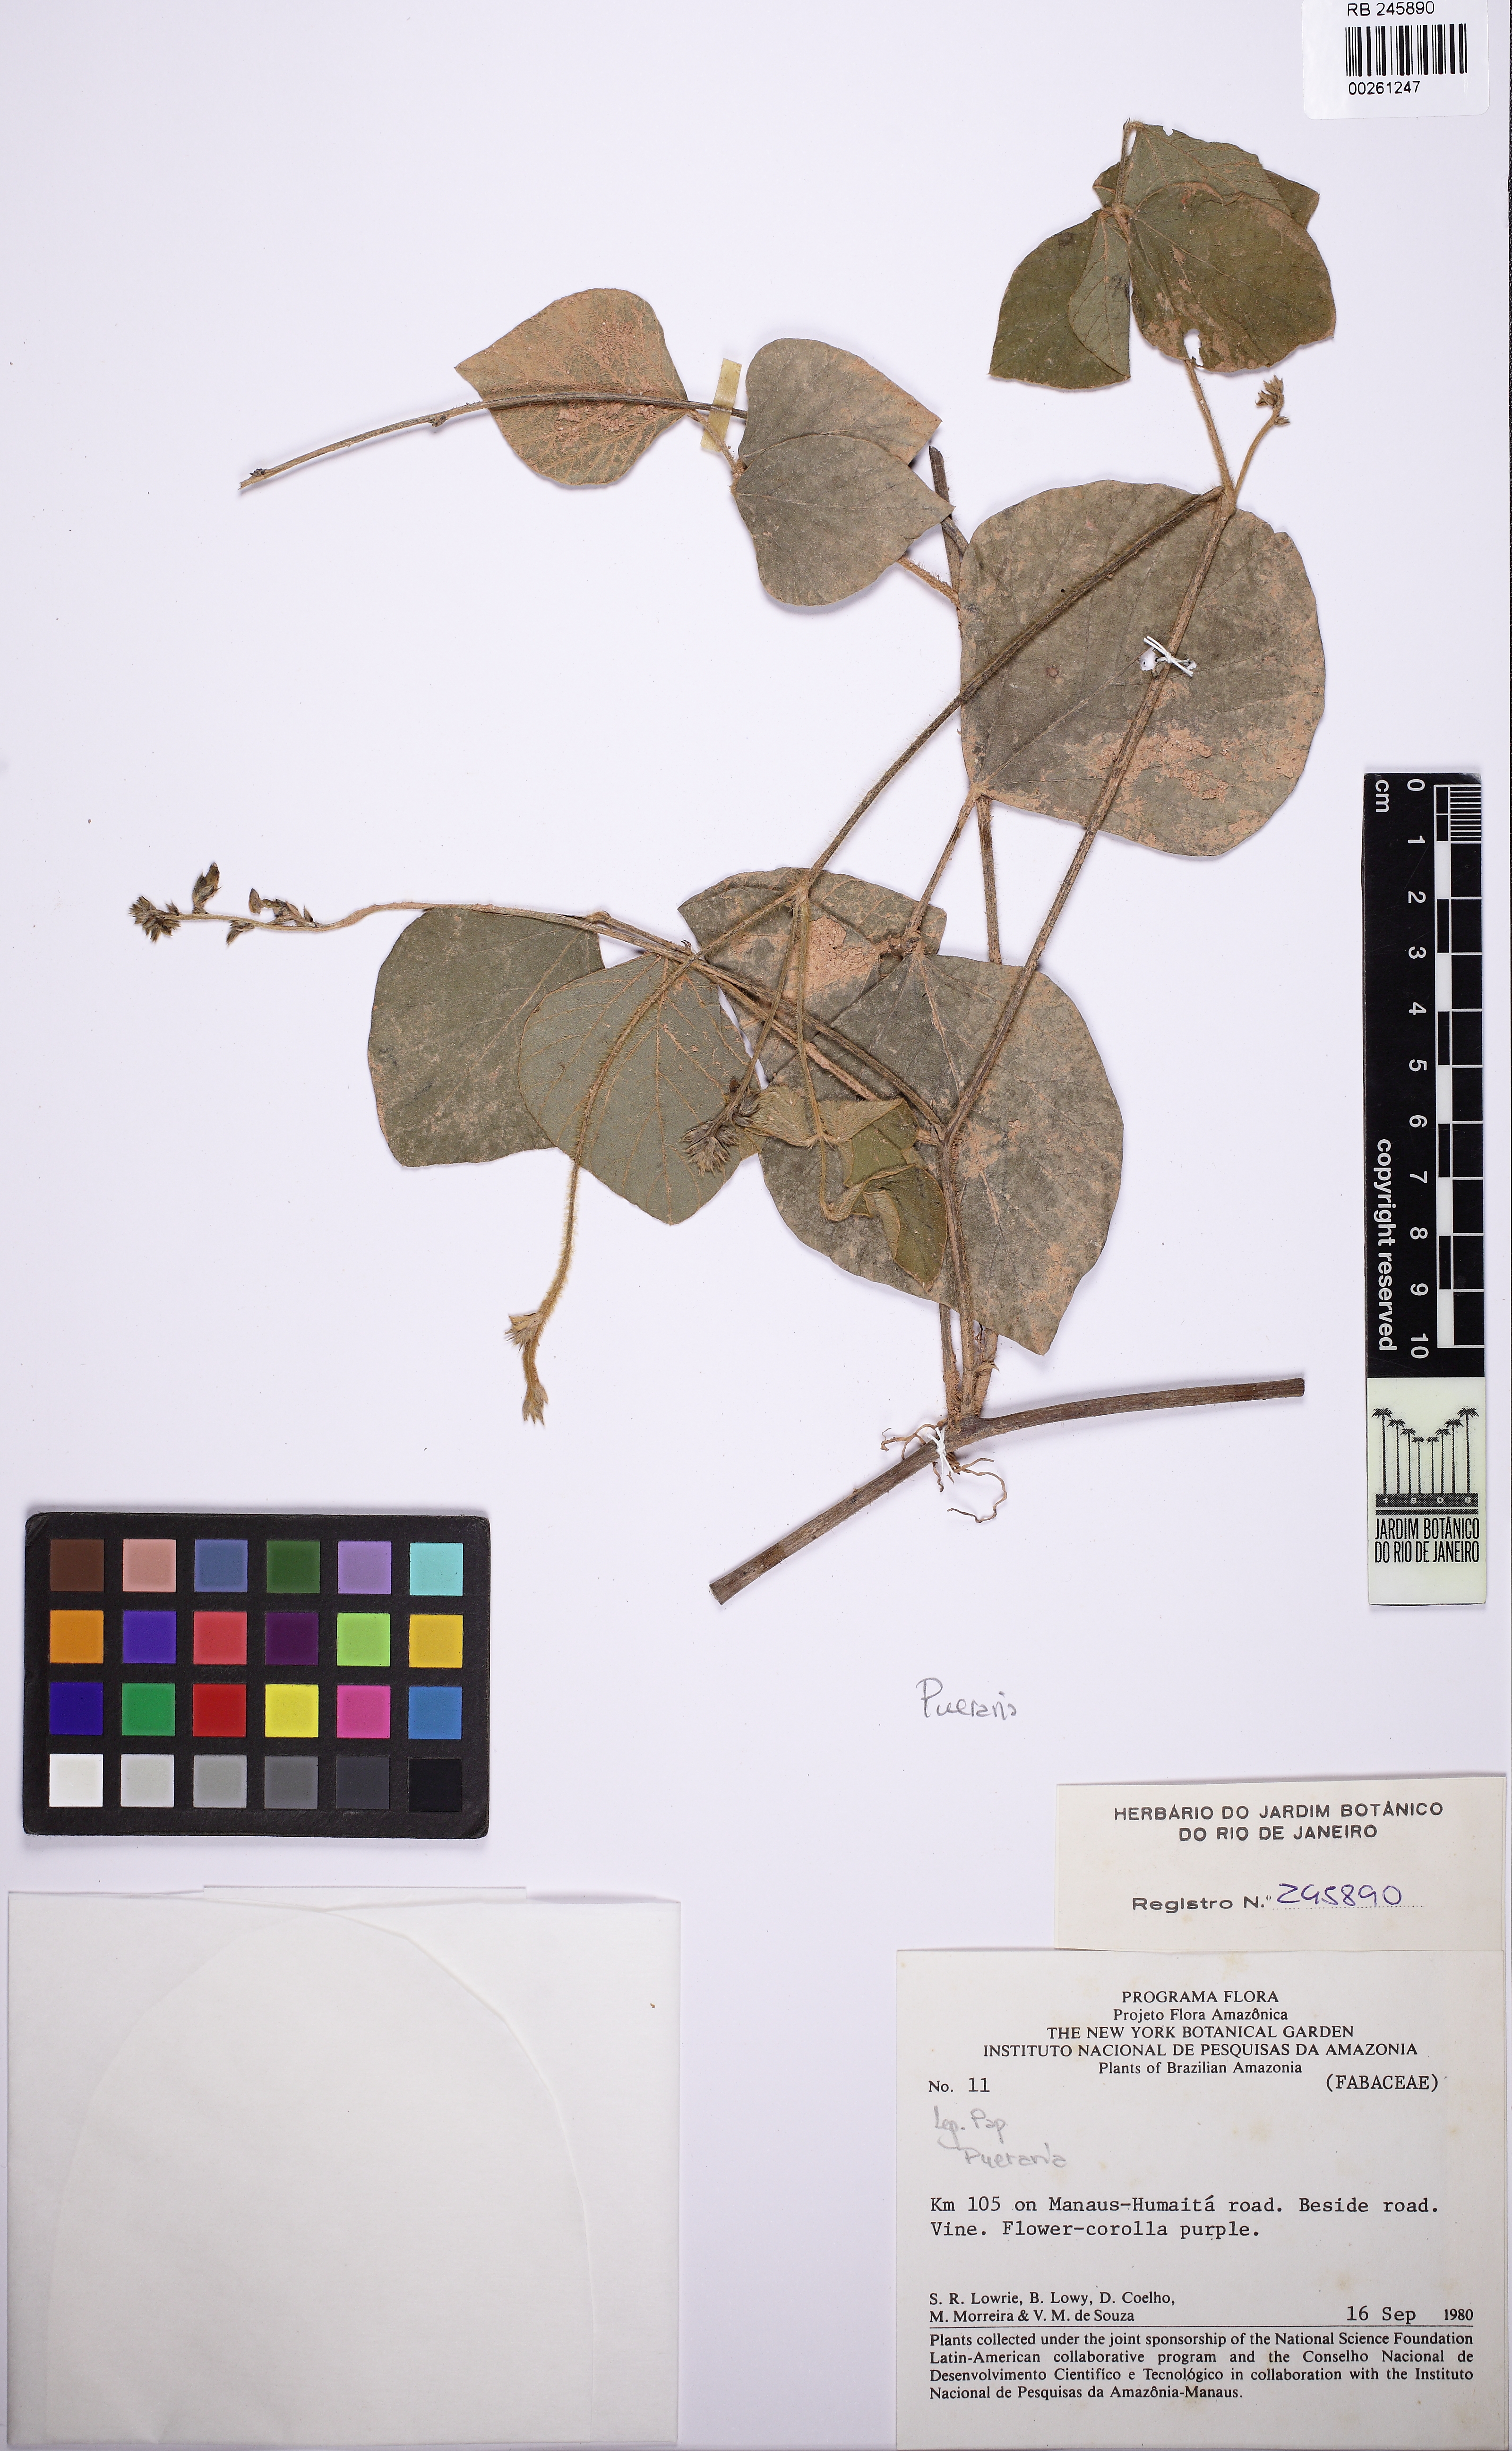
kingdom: Plantae
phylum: Tracheophyta
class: Magnoliopsida
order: Fabales
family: Fabaceae
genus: Pueraria
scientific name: Pueraria
